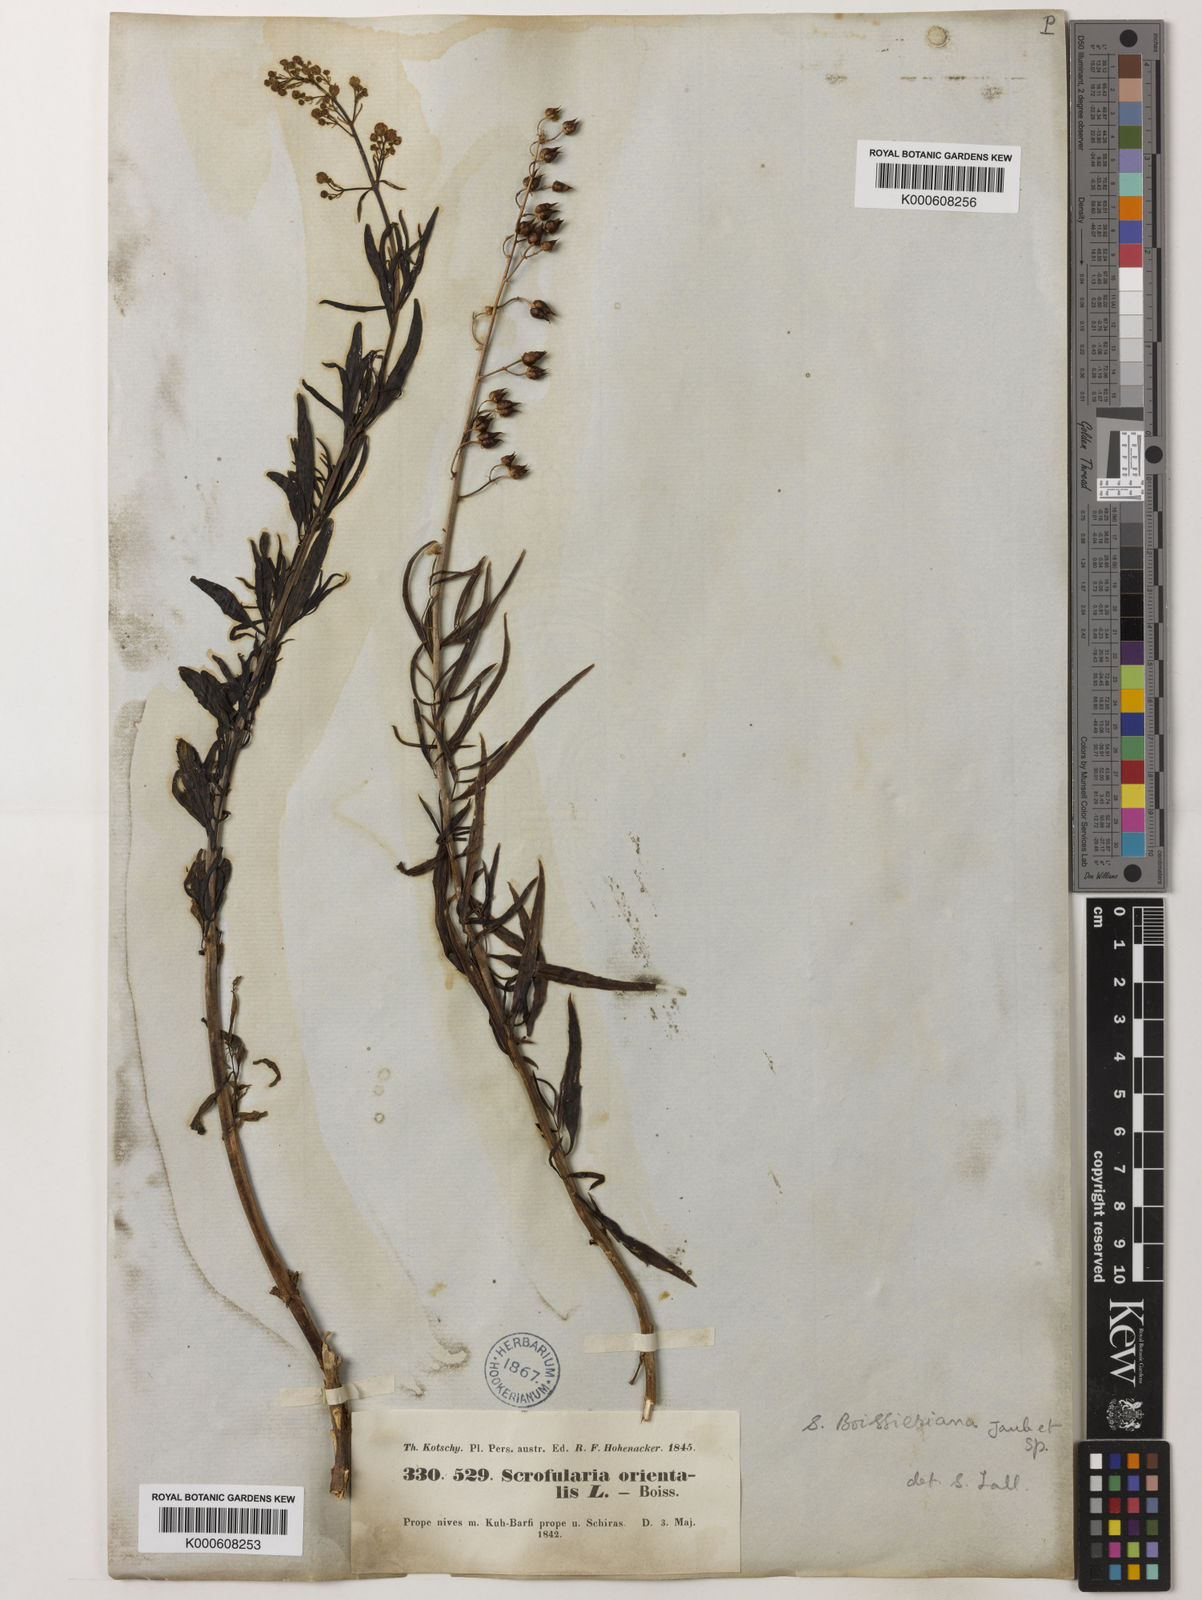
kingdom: Plantae
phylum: Tracheophyta
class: Magnoliopsida
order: Lamiales
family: Scrophulariaceae
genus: Scrophularia
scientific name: Scrophularia nervosa
